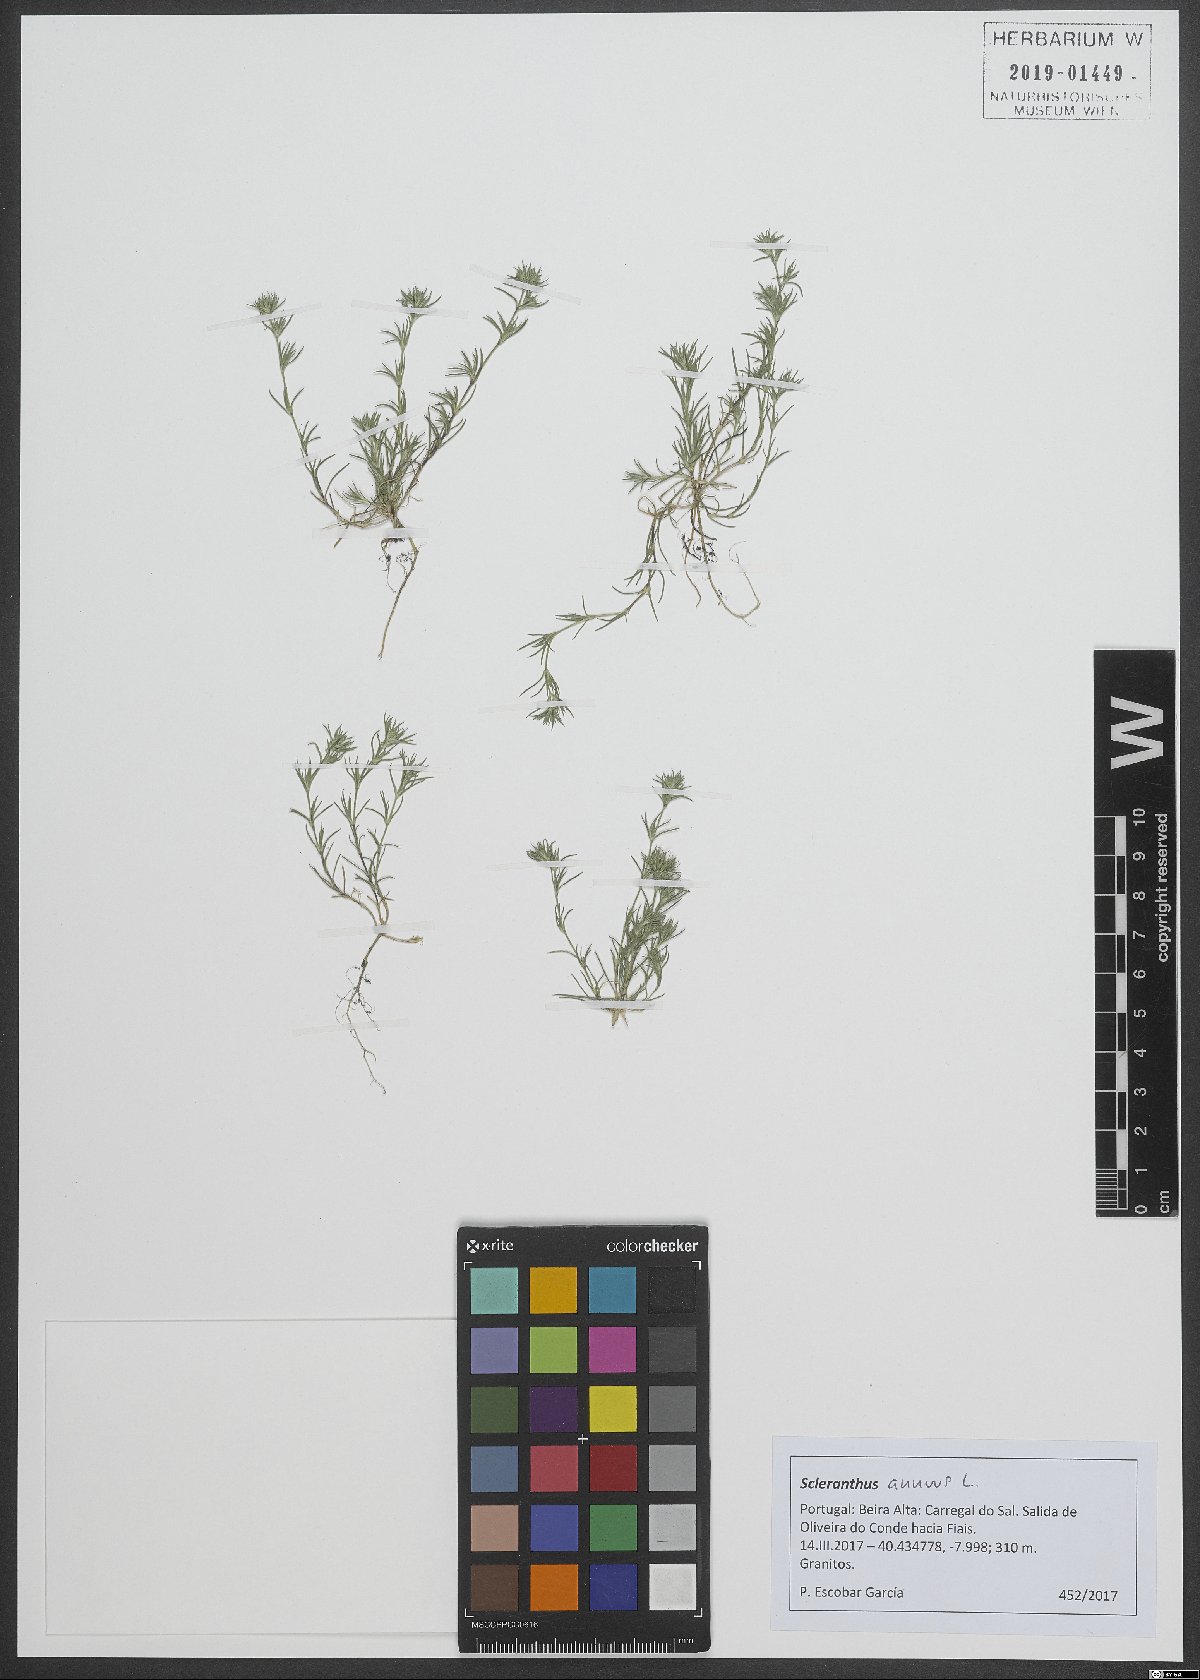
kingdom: Plantae
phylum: Tracheophyta
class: Magnoliopsida
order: Caryophyllales
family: Caryophyllaceae
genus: Scleranthus
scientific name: Scleranthus annuus
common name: Annual knawel
